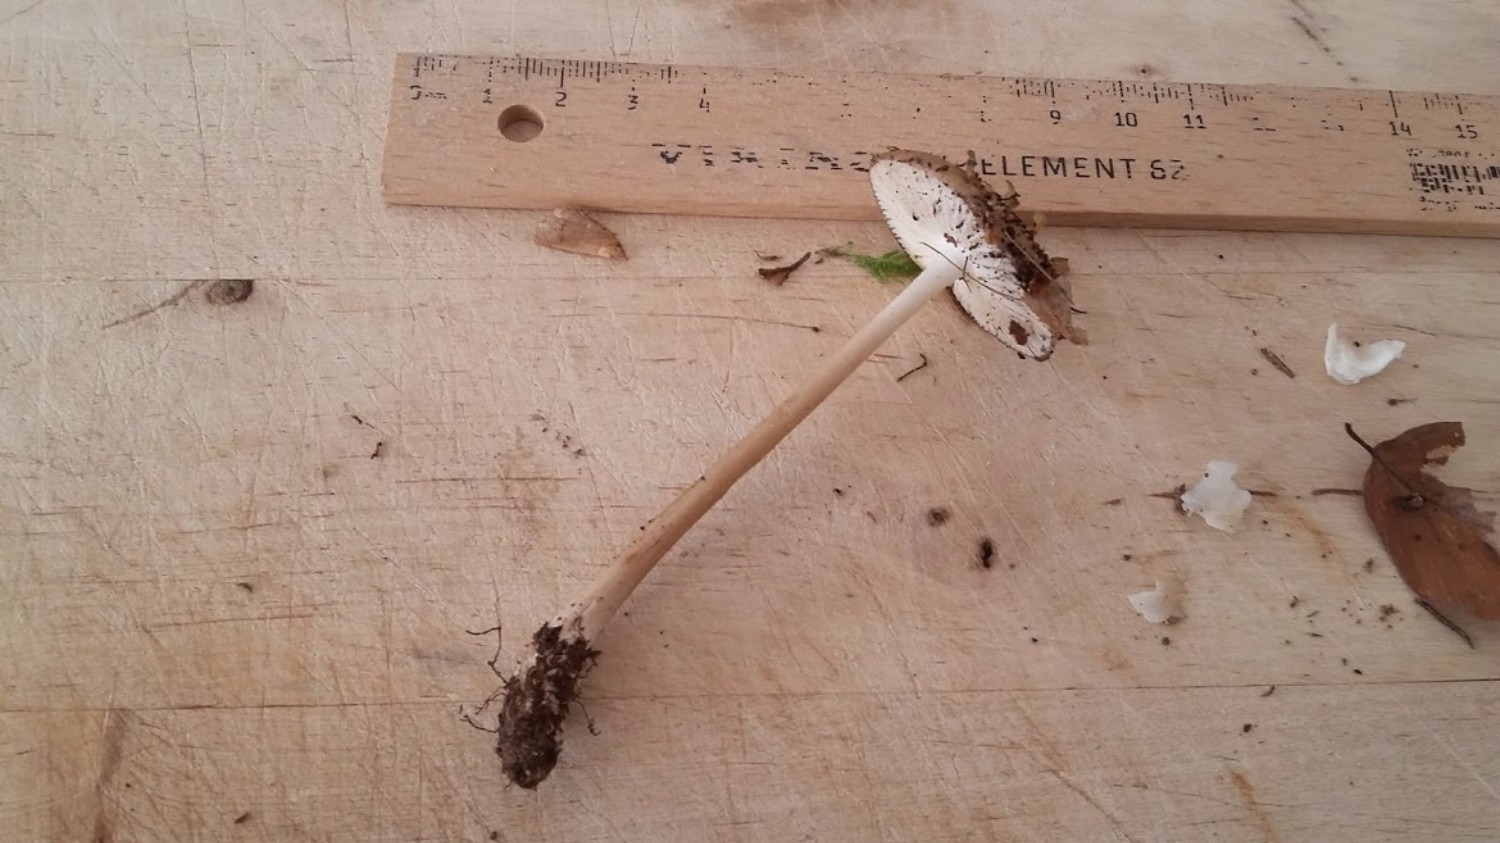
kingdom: Fungi
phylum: Basidiomycota
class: Agaricomycetes
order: Agaricales
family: Physalacriaceae
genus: Hymenopellis
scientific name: Hymenopellis radicata
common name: almindelig pælerodshat
